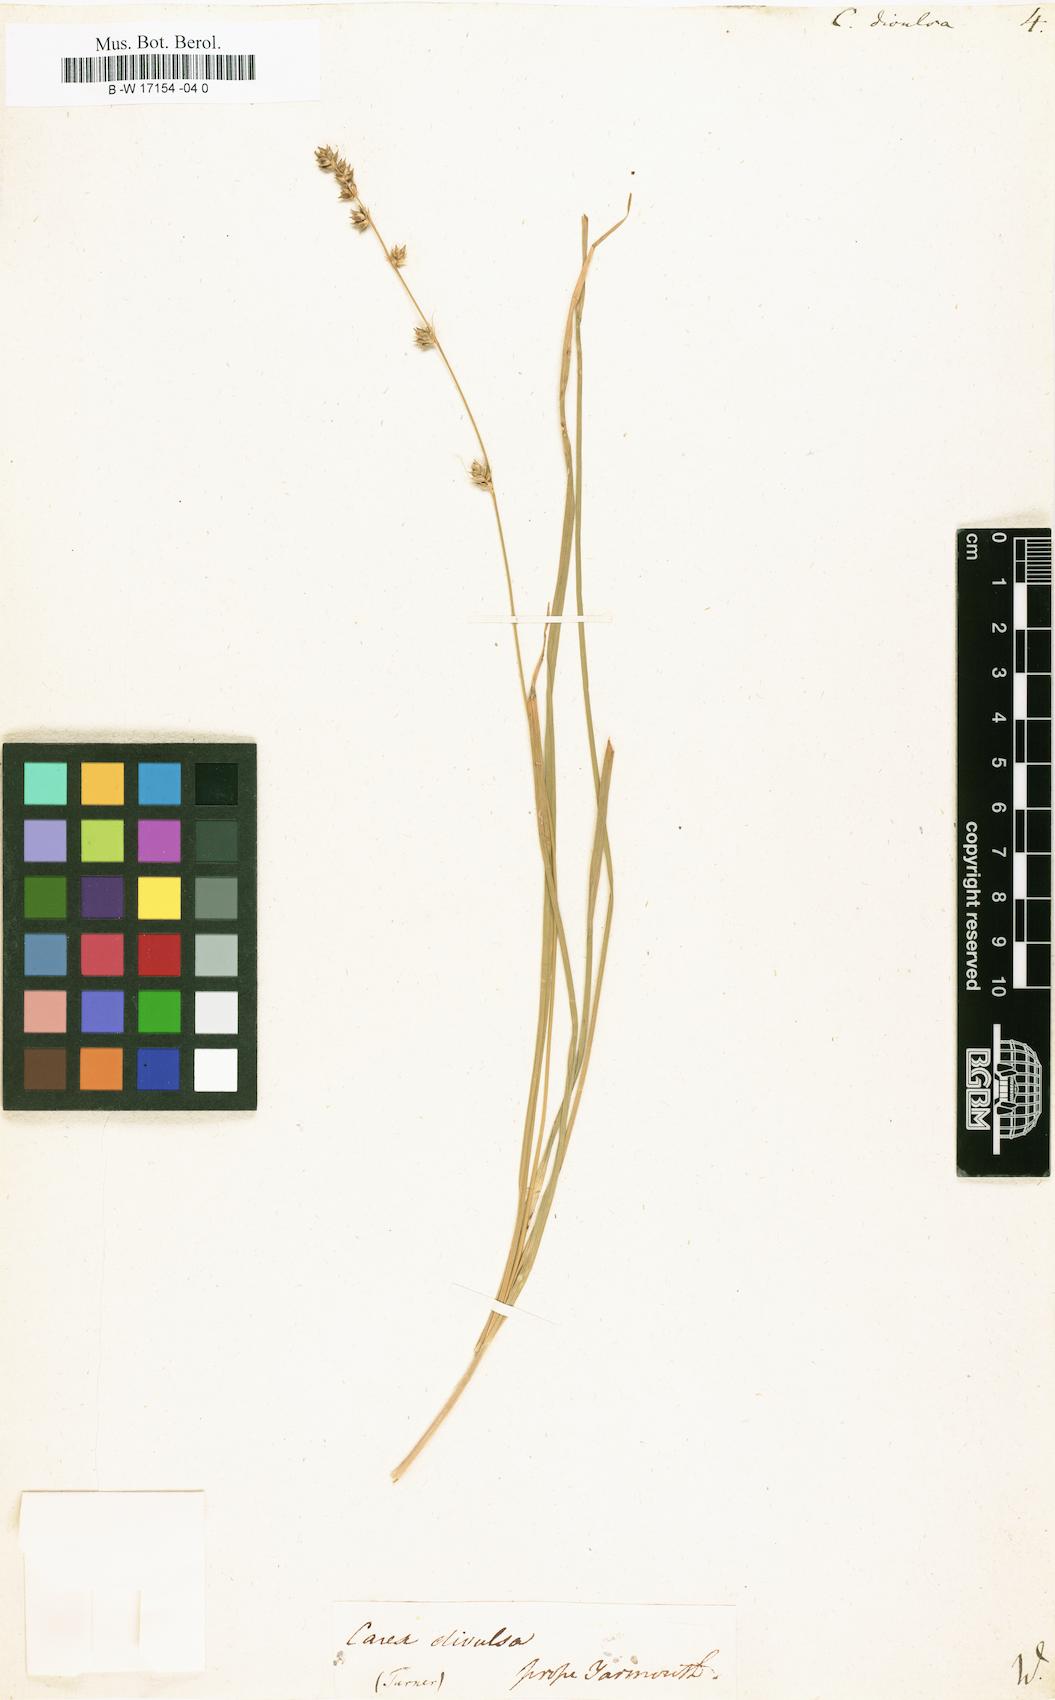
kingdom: Plantae
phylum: Tracheophyta
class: Liliopsida
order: Poales
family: Cyperaceae
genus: Carex
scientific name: Carex divulsa
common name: Grassland sedge
